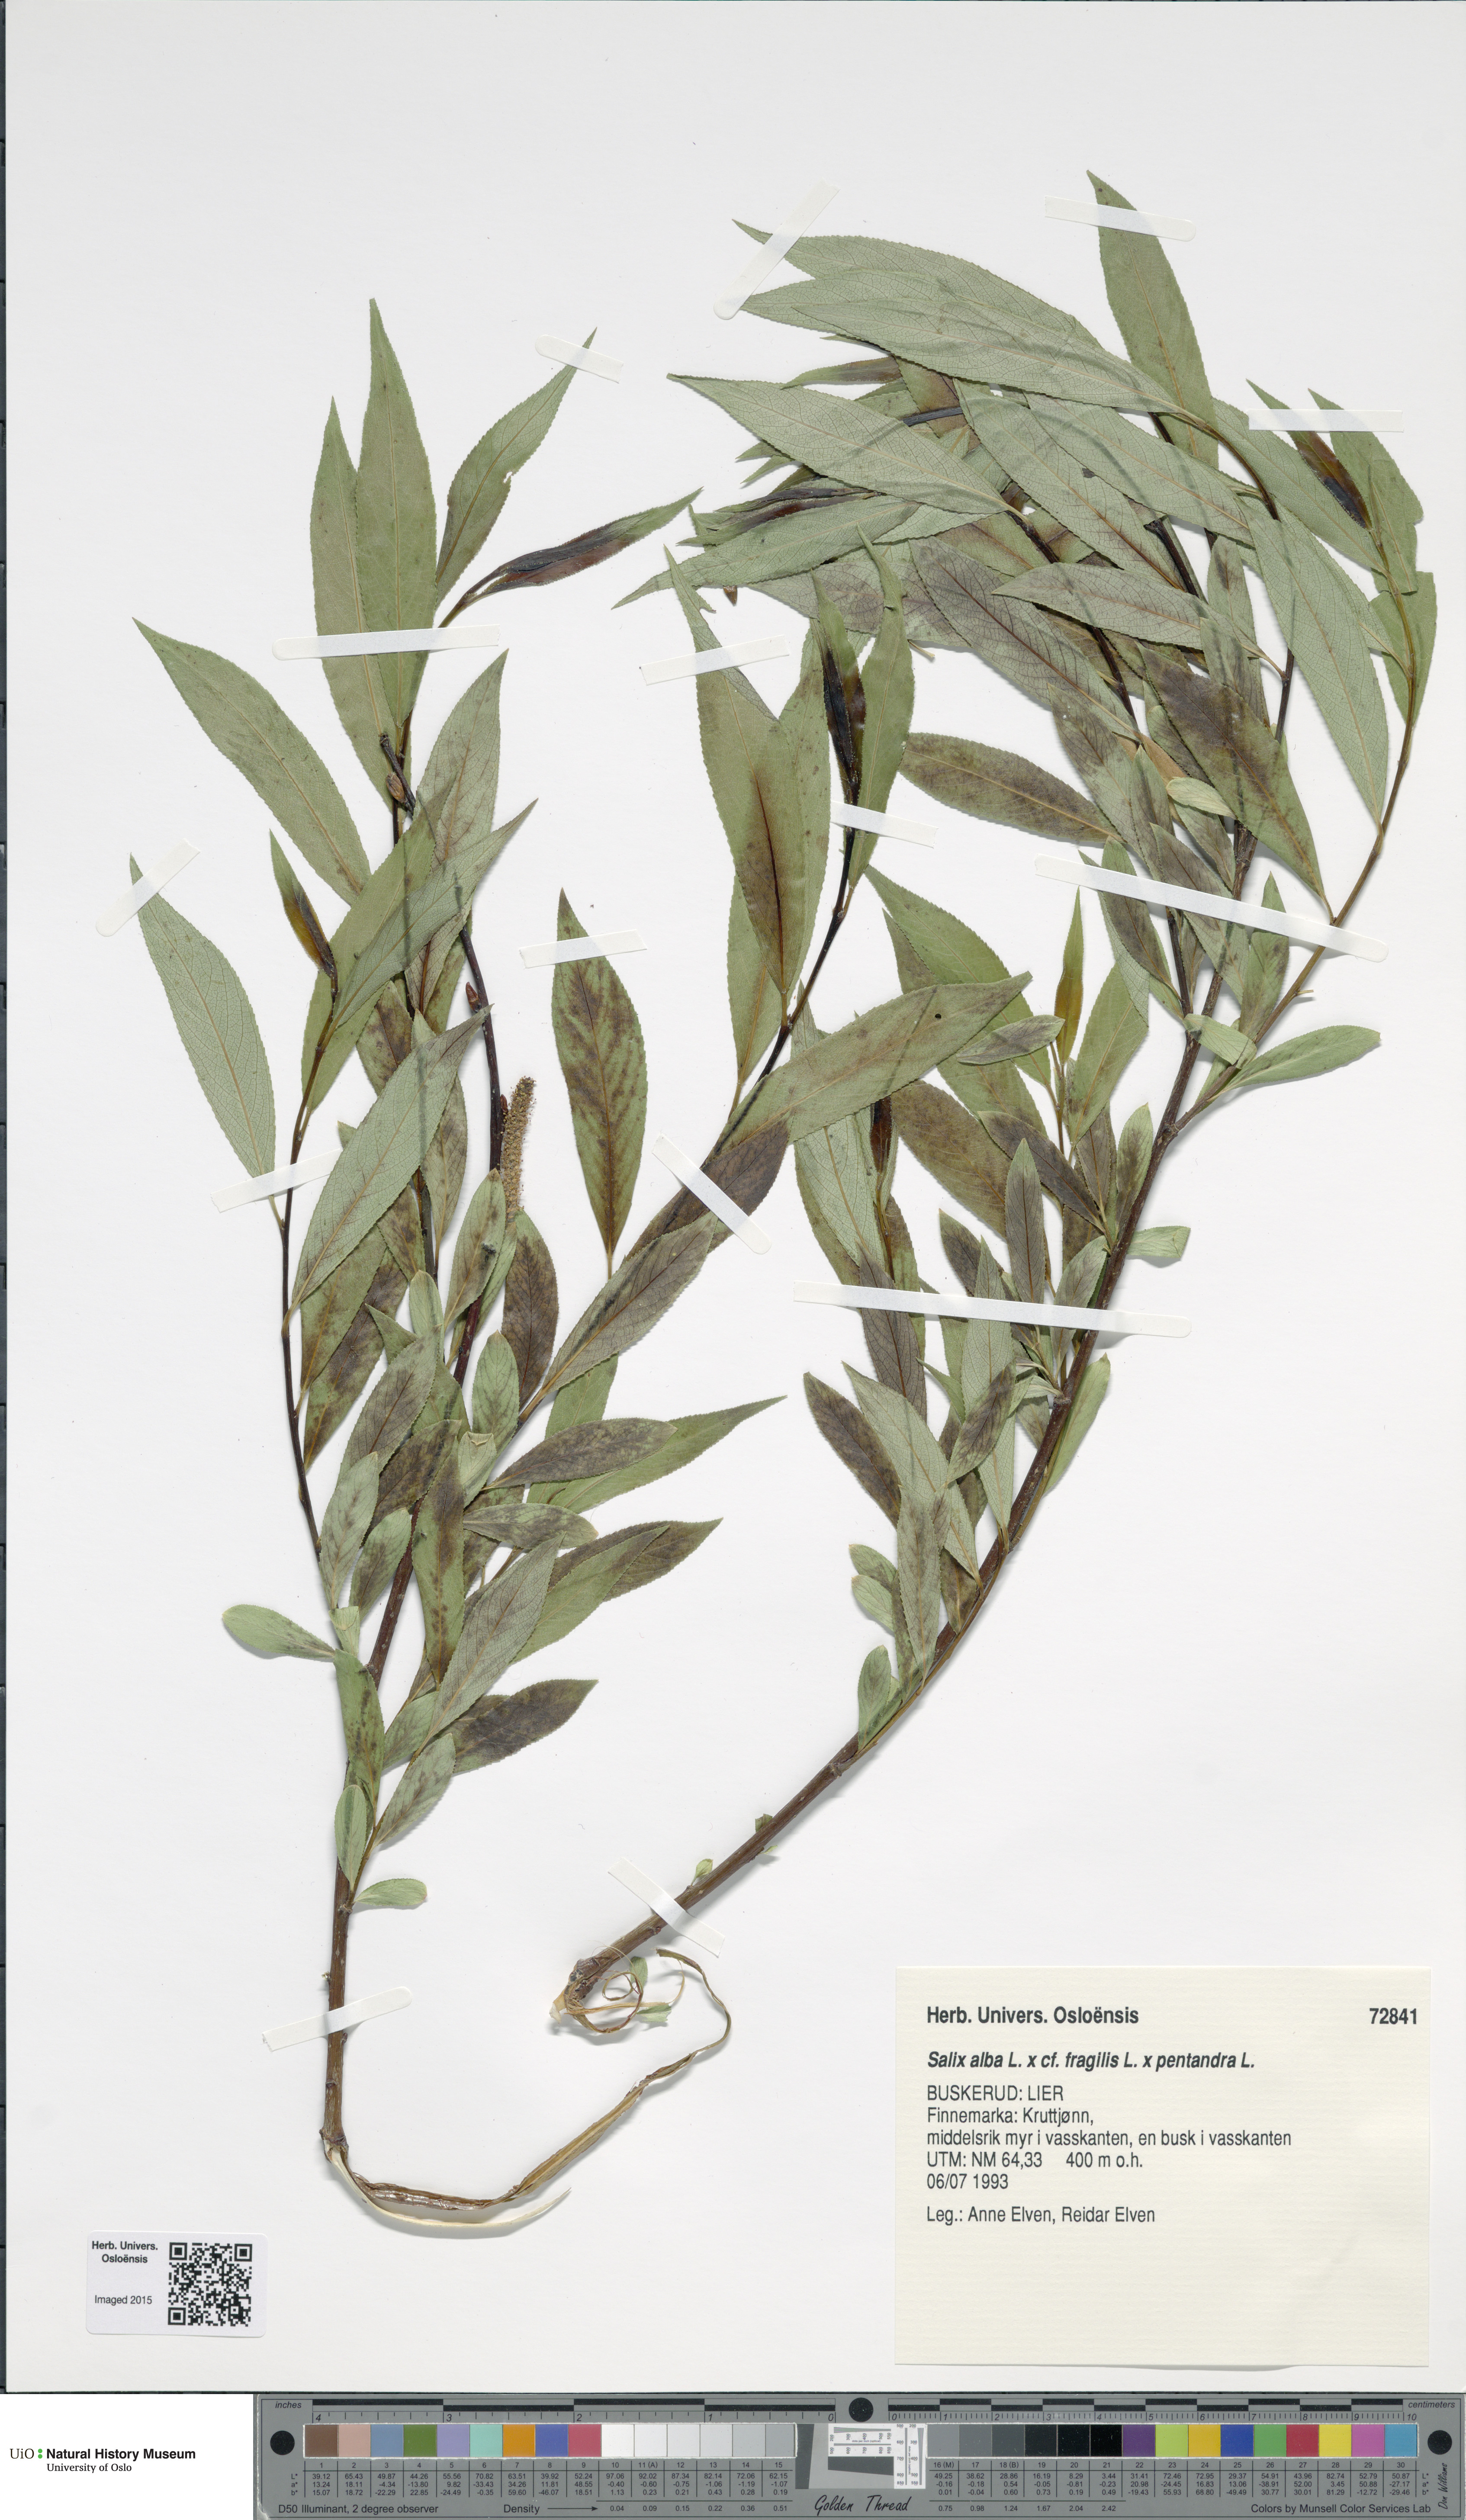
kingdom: Plantae
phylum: Tracheophyta
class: Magnoliopsida
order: Malpighiales
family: Salicaceae
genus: Salix
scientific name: Salix
